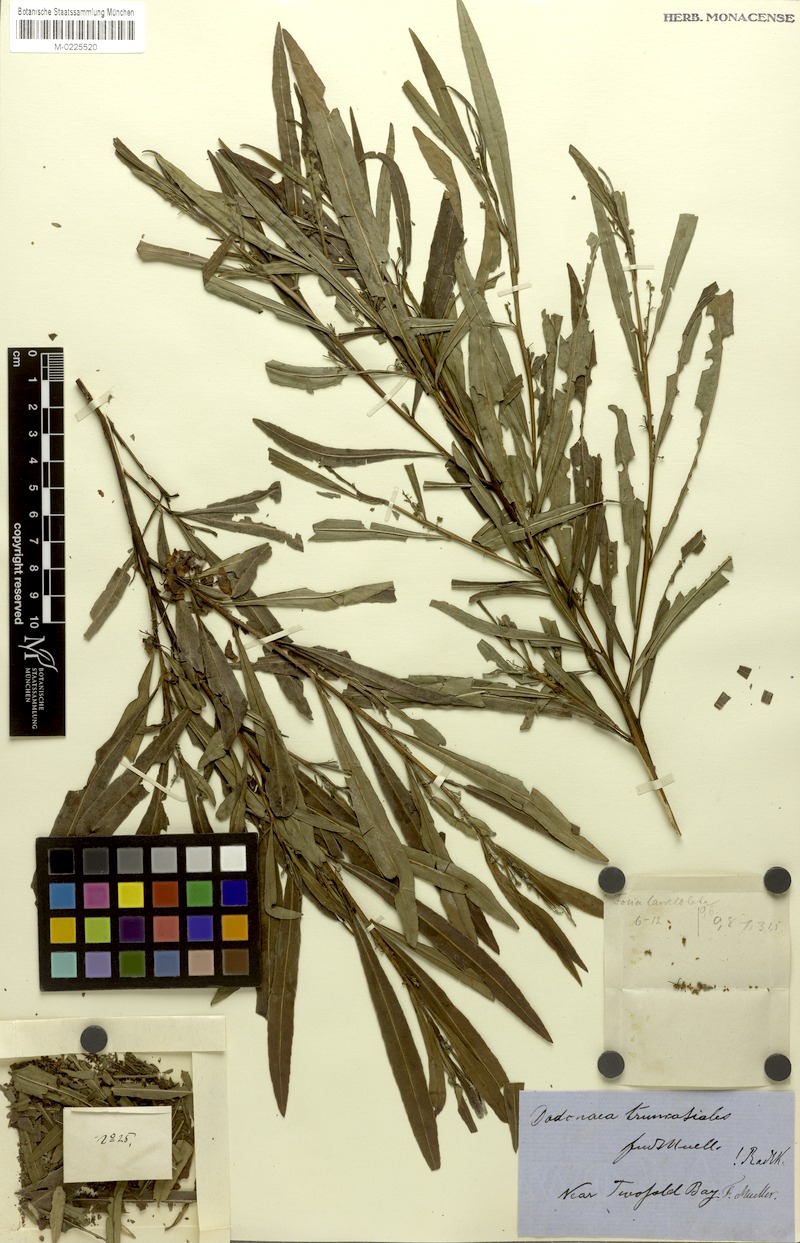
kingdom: Plantae
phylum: Tracheophyta
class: Magnoliopsida
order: Sapindales
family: Sapindaceae
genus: Dodonaea
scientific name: Dodonaea truncatialis
